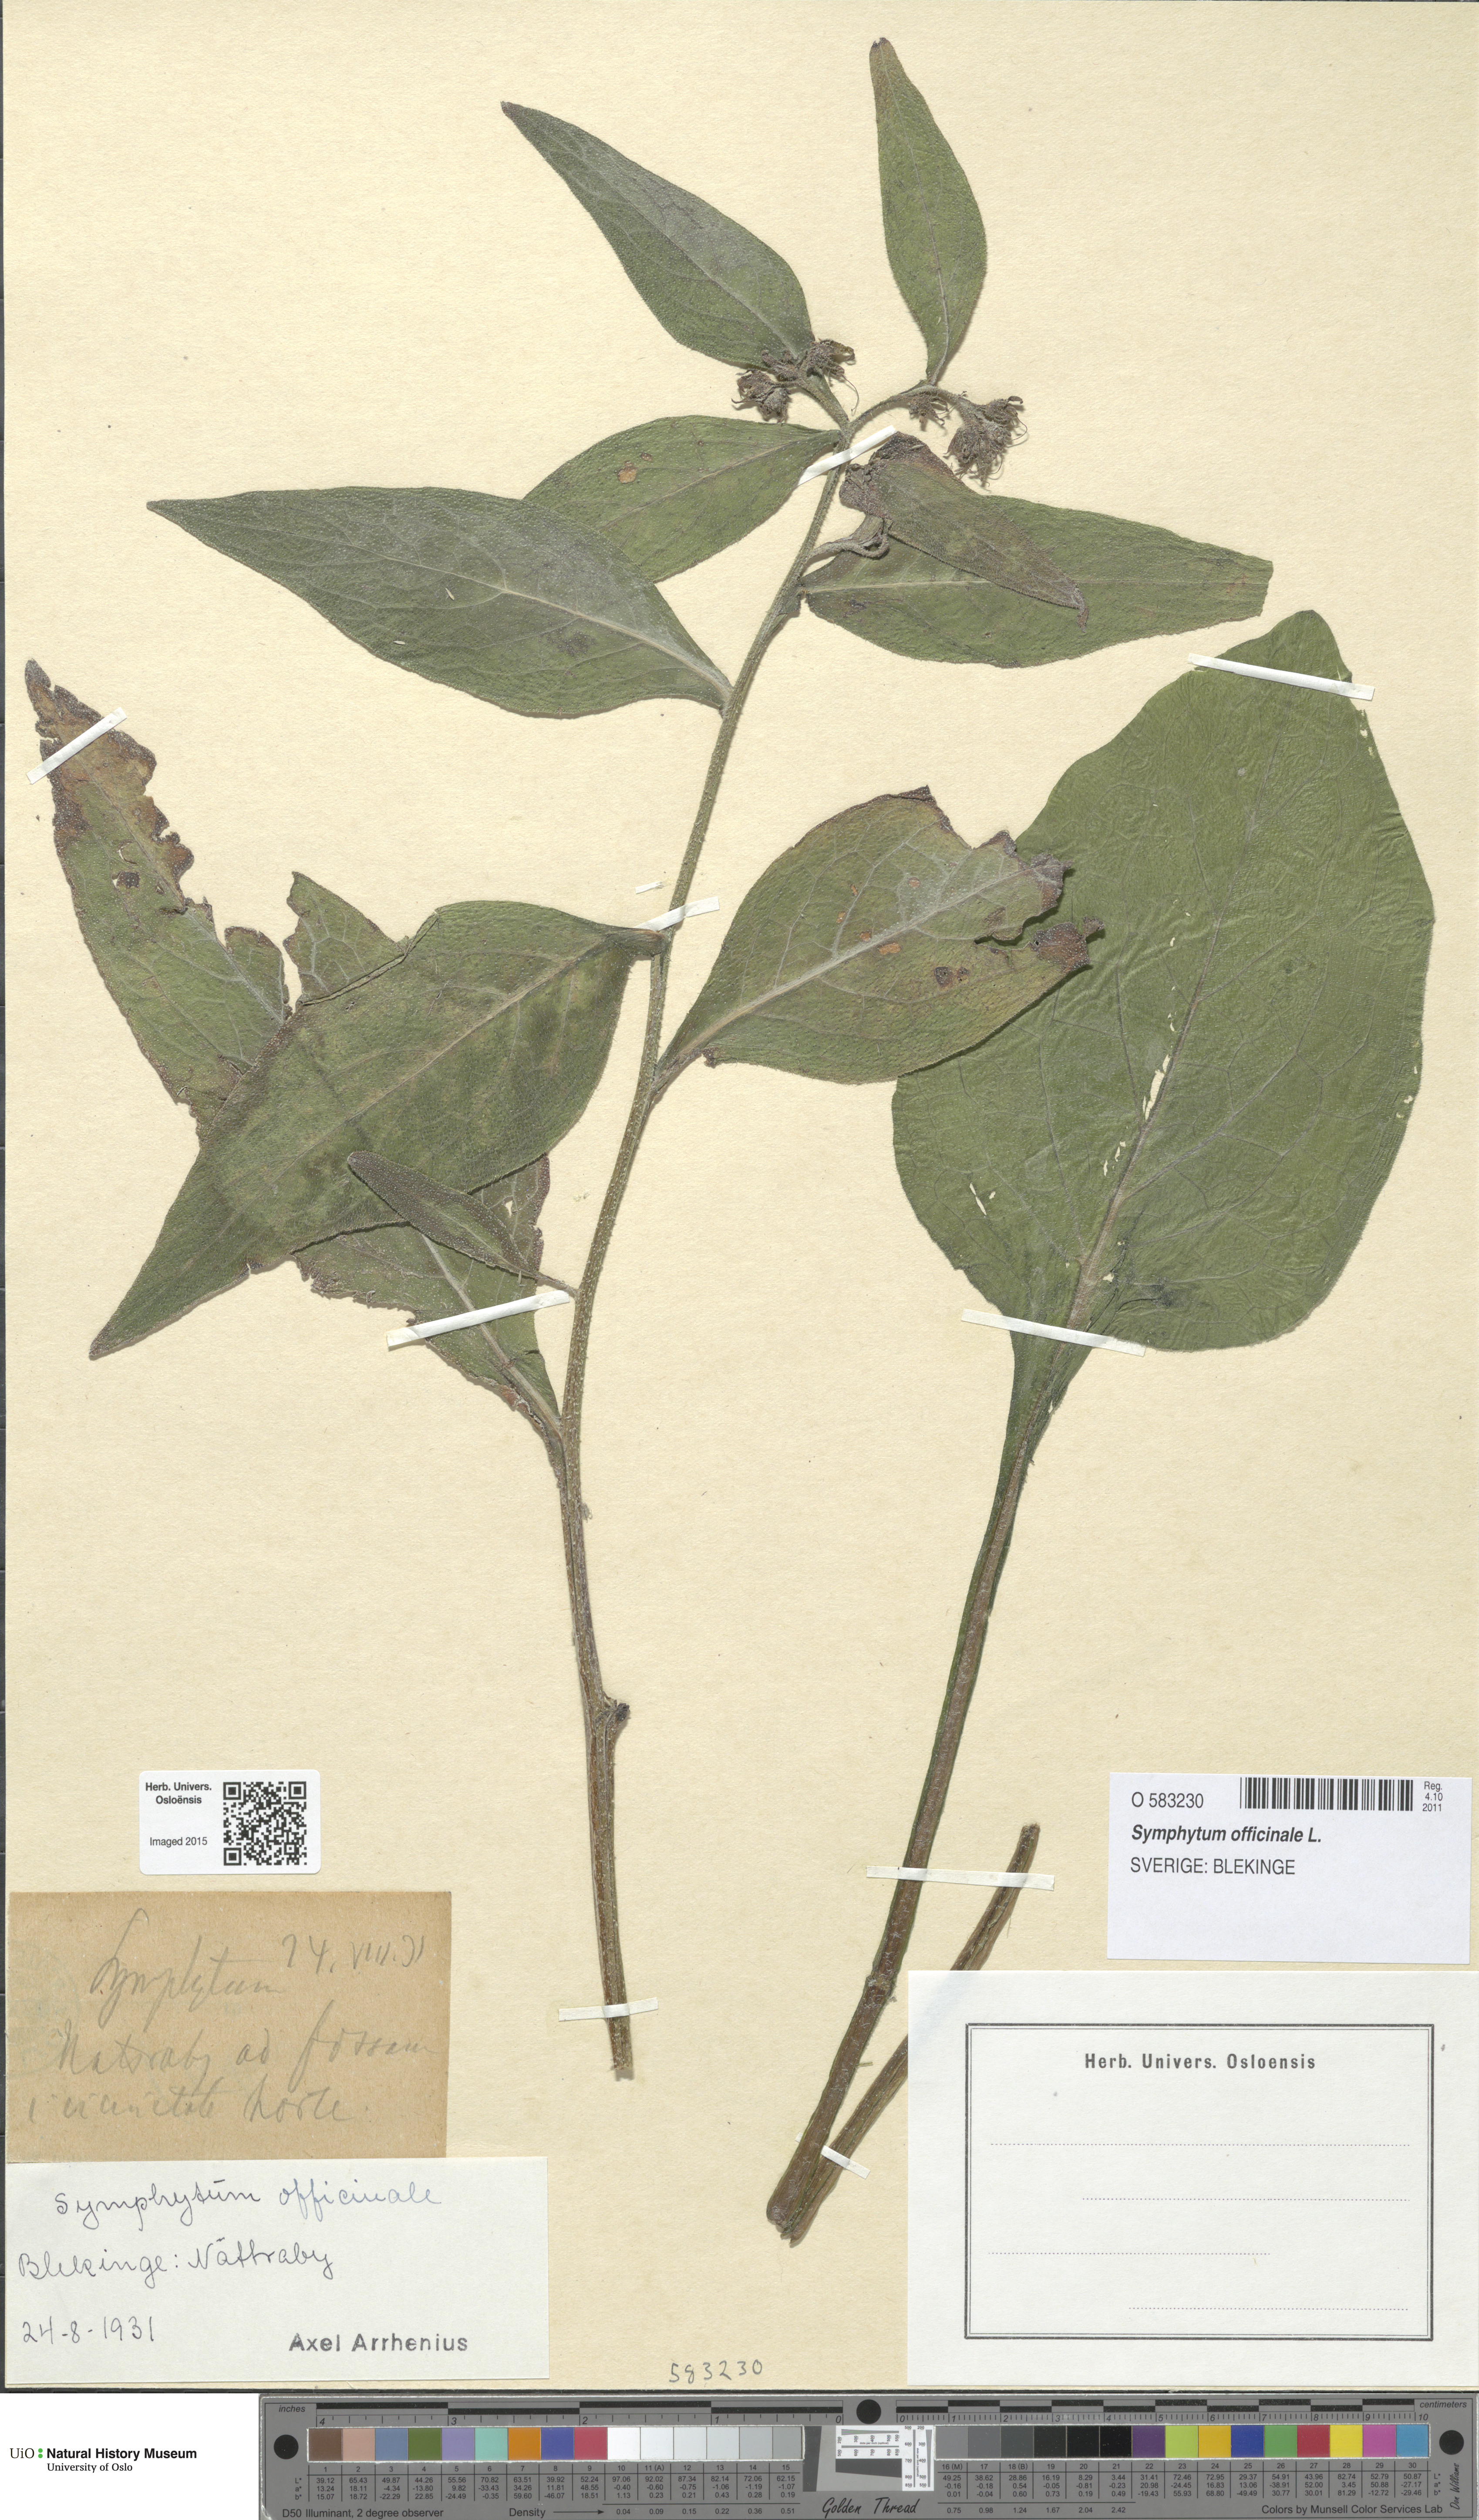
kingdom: Plantae
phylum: Tracheophyta
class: Magnoliopsida
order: Boraginales
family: Boraginaceae
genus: Symphytum
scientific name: Symphytum officinale
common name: Common comfrey
